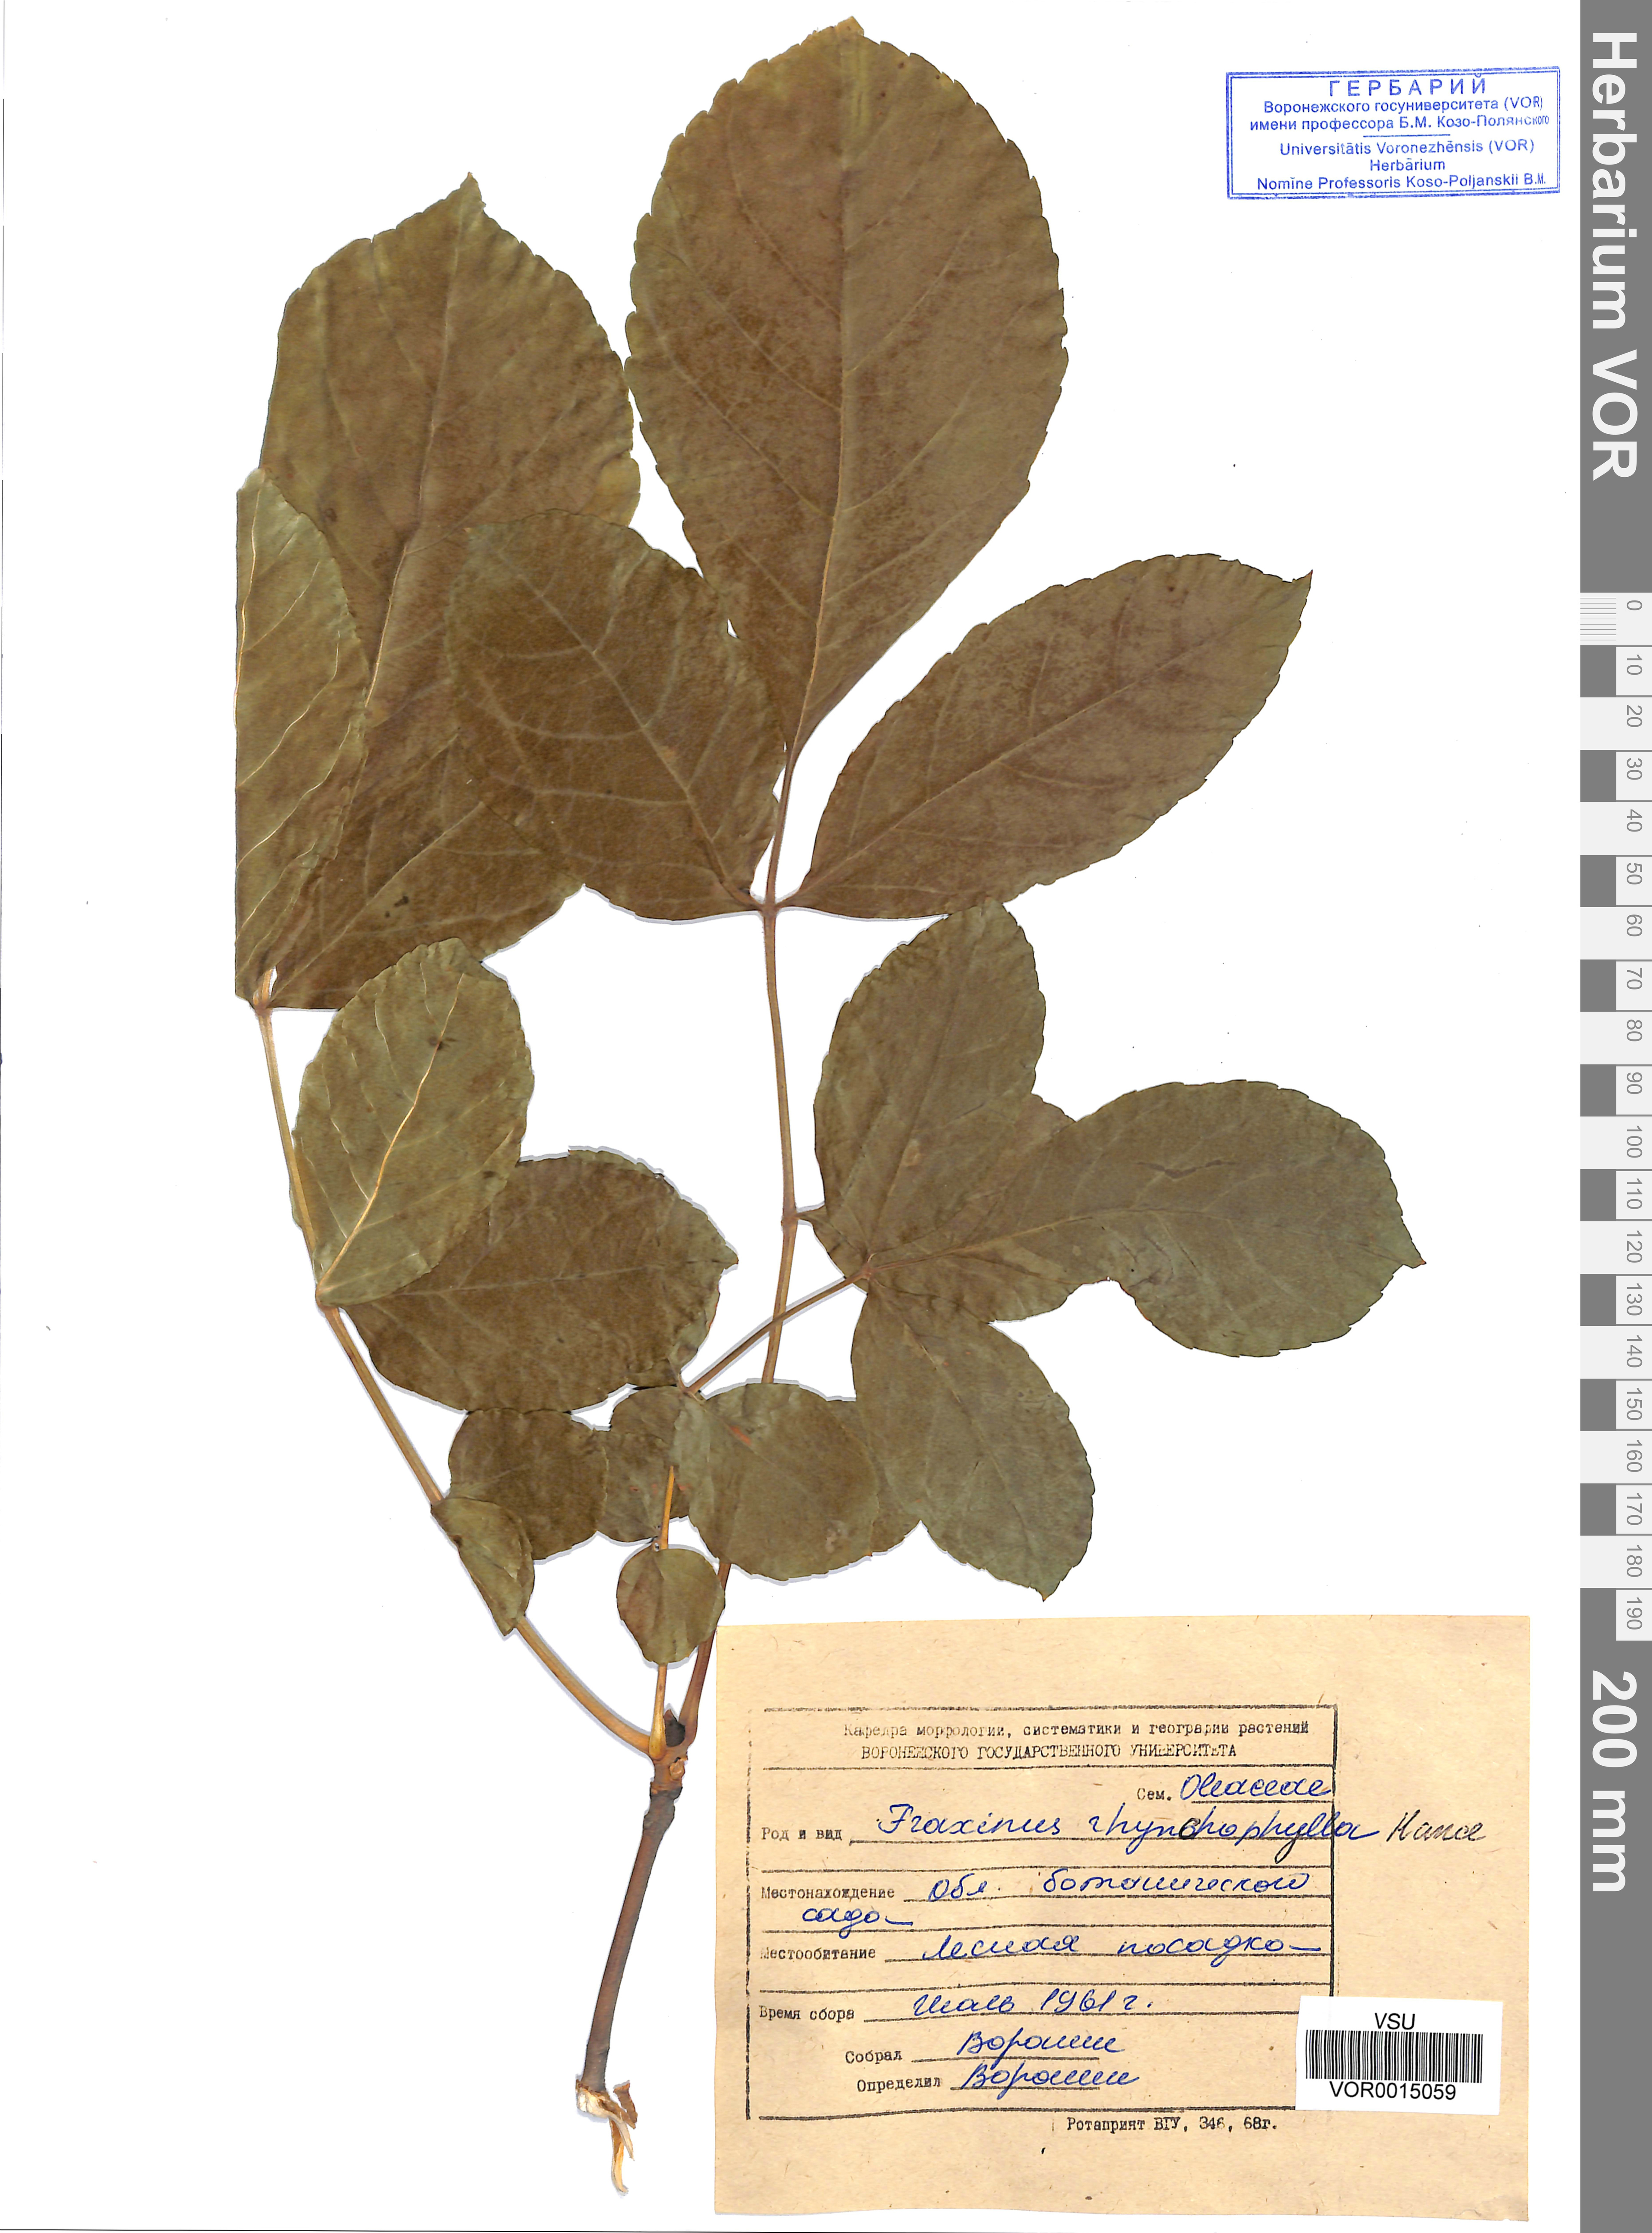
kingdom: Plantae
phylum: Tracheophyta
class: Magnoliopsida
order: Lamiales
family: Oleaceae
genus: Fraxinus
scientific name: Fraxinus chinensis
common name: Chinese ash
